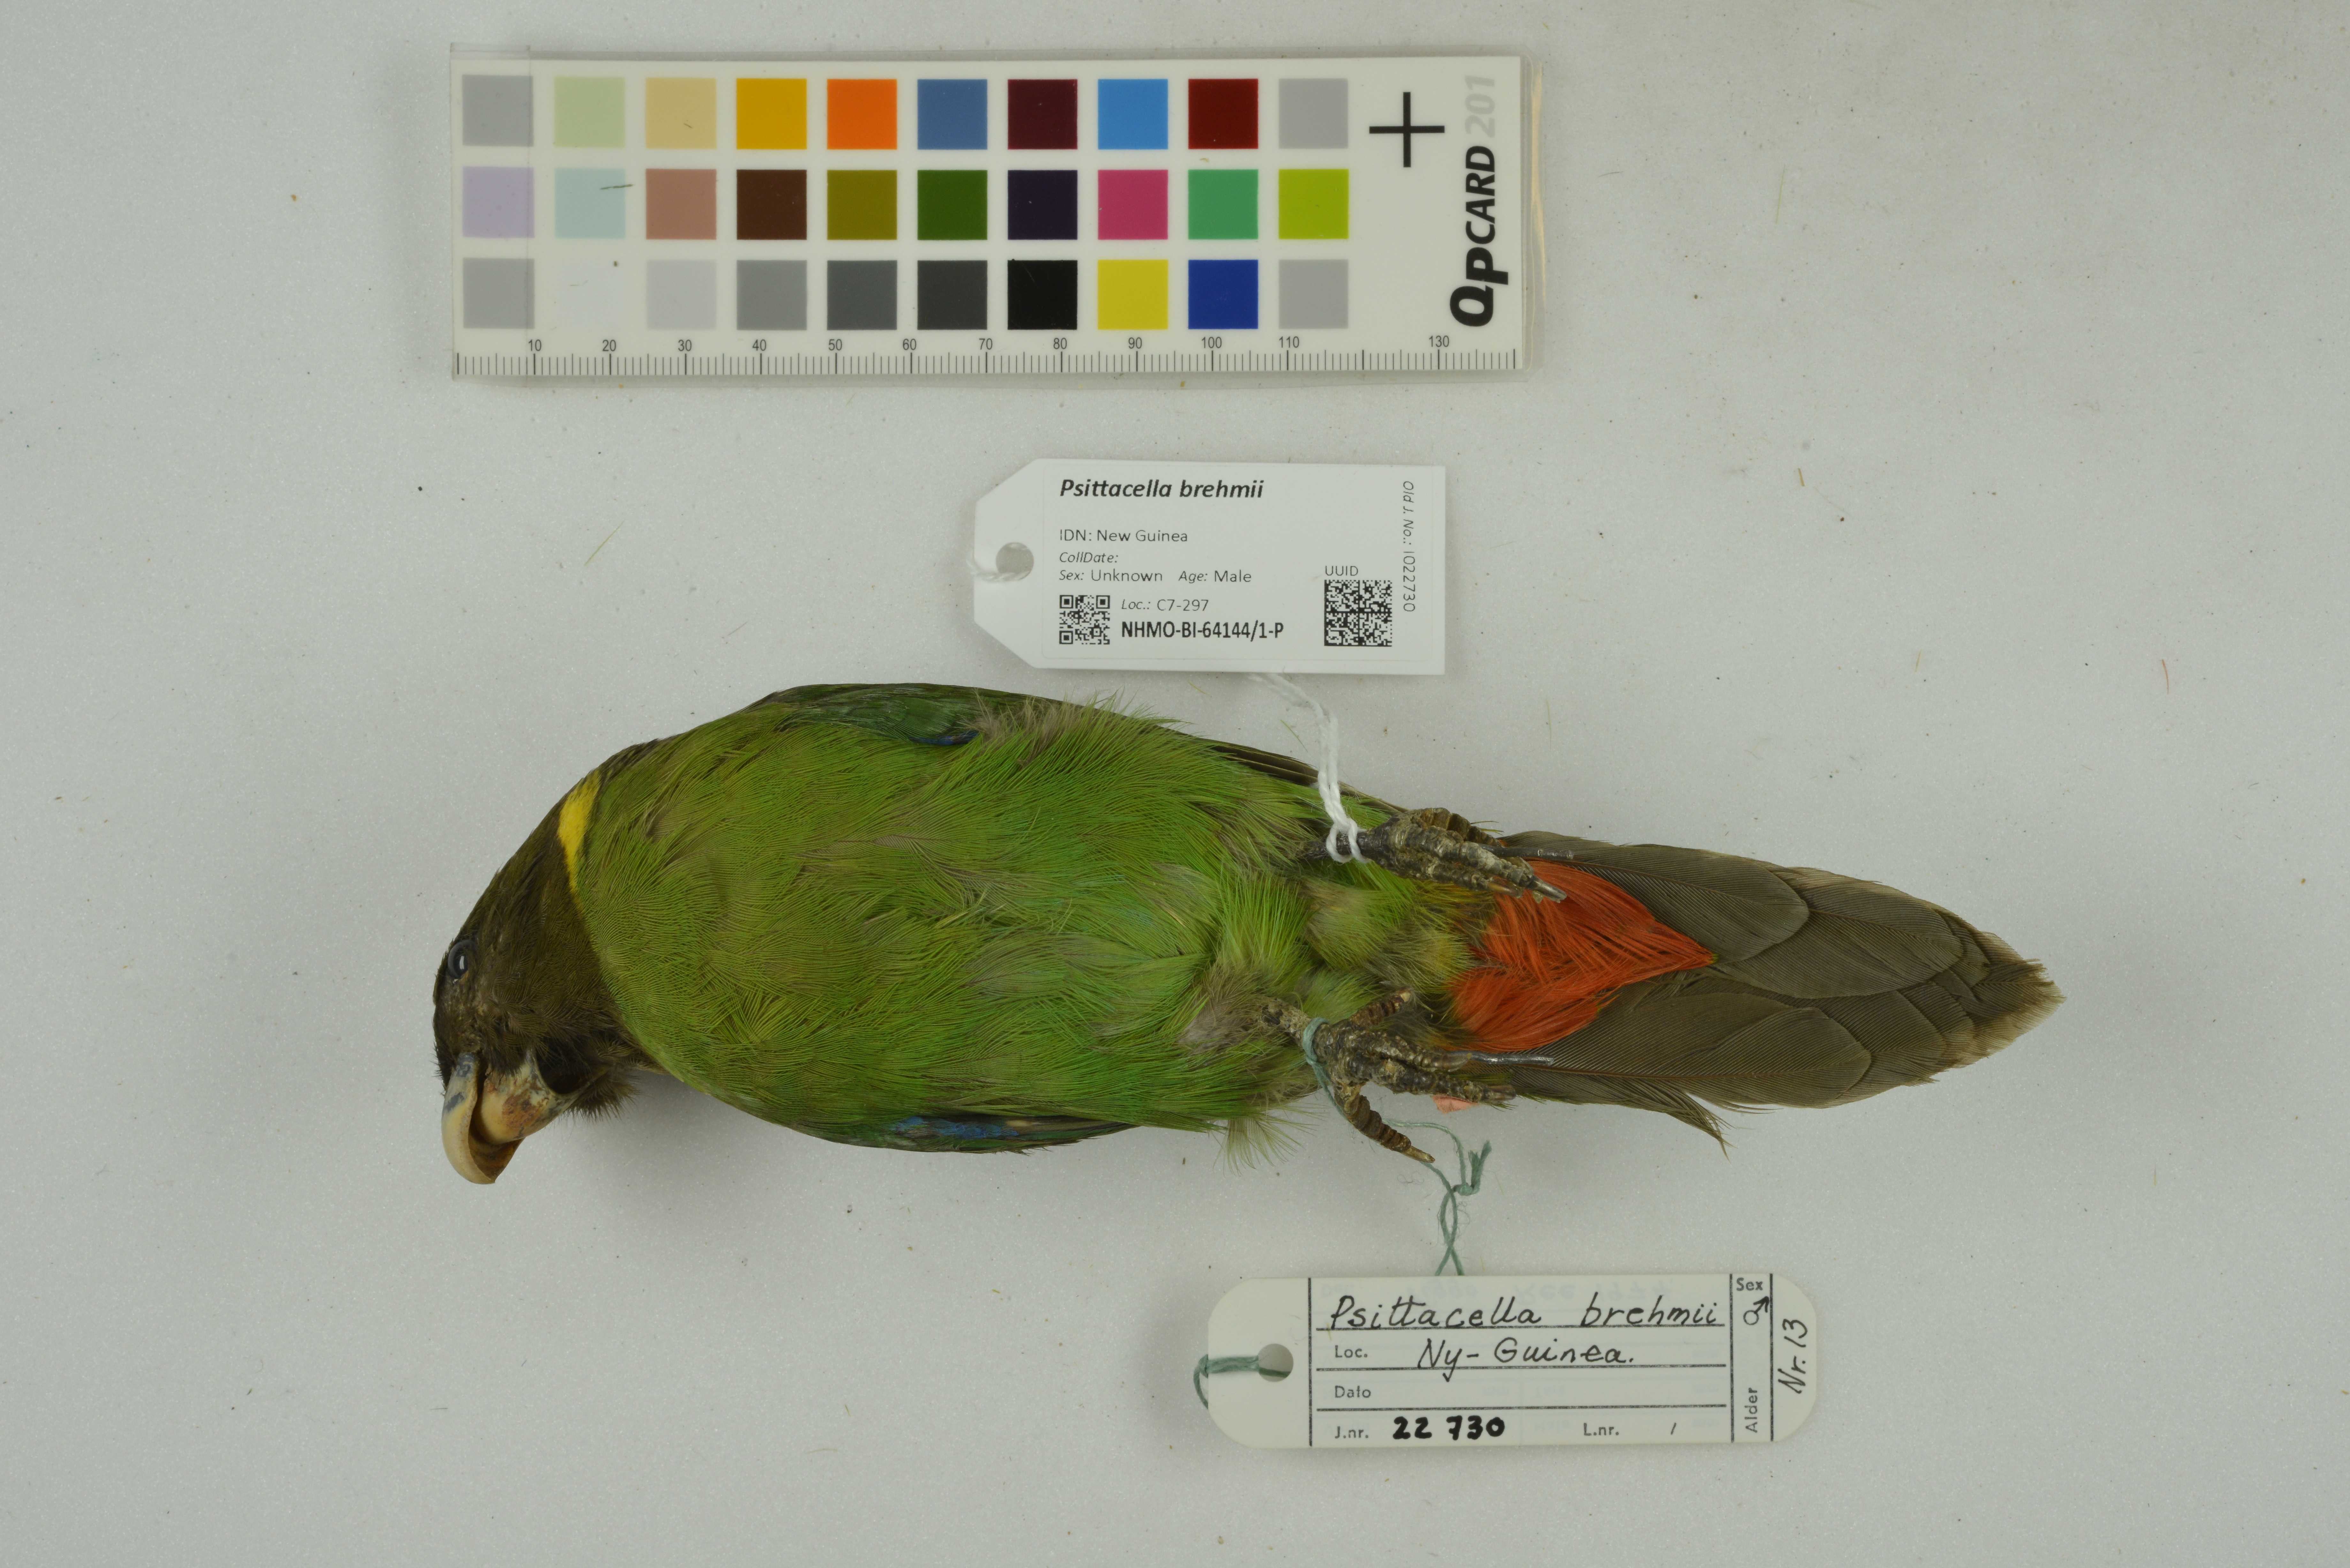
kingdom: Animalia
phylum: Chordata
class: Aves
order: Psittaciformes
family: Psittacidae
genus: Psittacella
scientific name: Psittacella brehmii
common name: Brehm's tiger parrot
